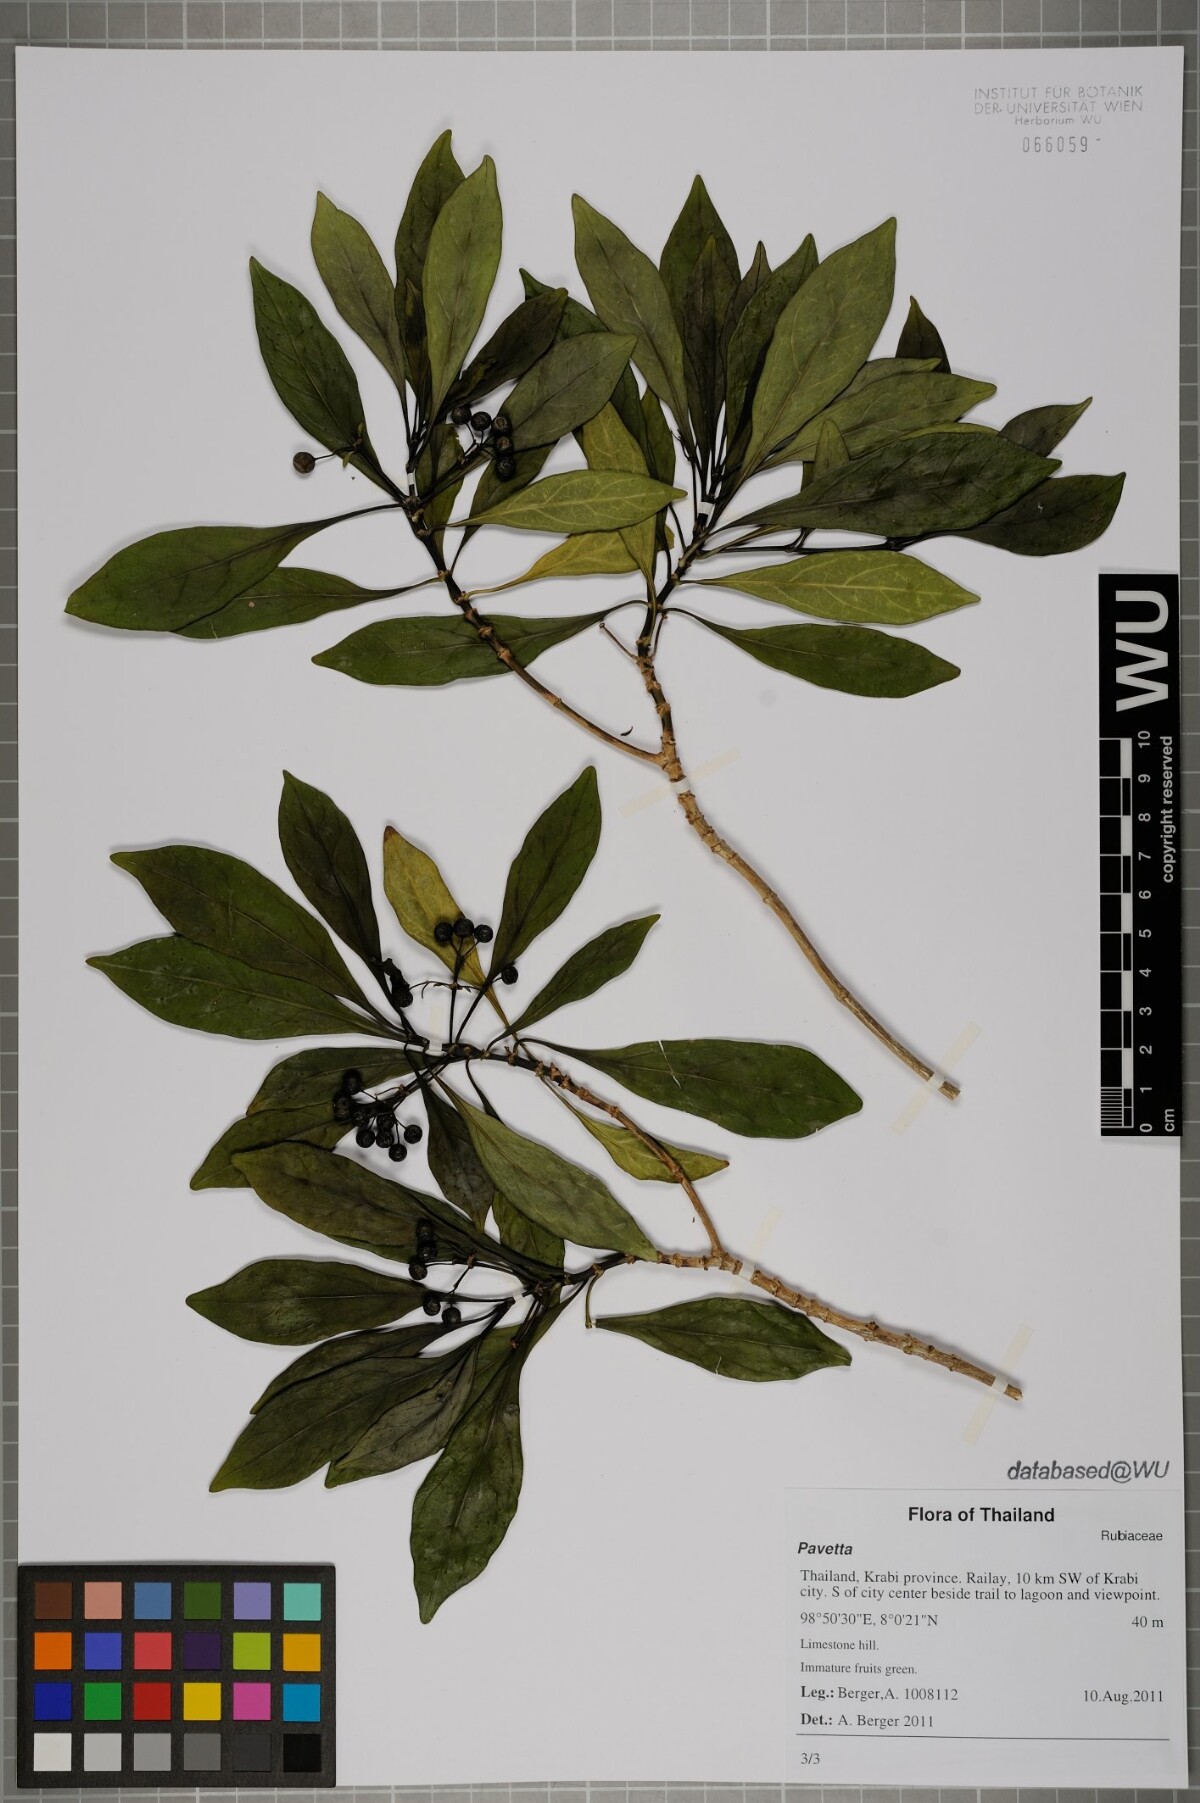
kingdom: Plantae
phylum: Tracheophyta
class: Magnoliopsida
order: Gentianales
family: Rubiaceae
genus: Pavetta
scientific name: Pavetta
